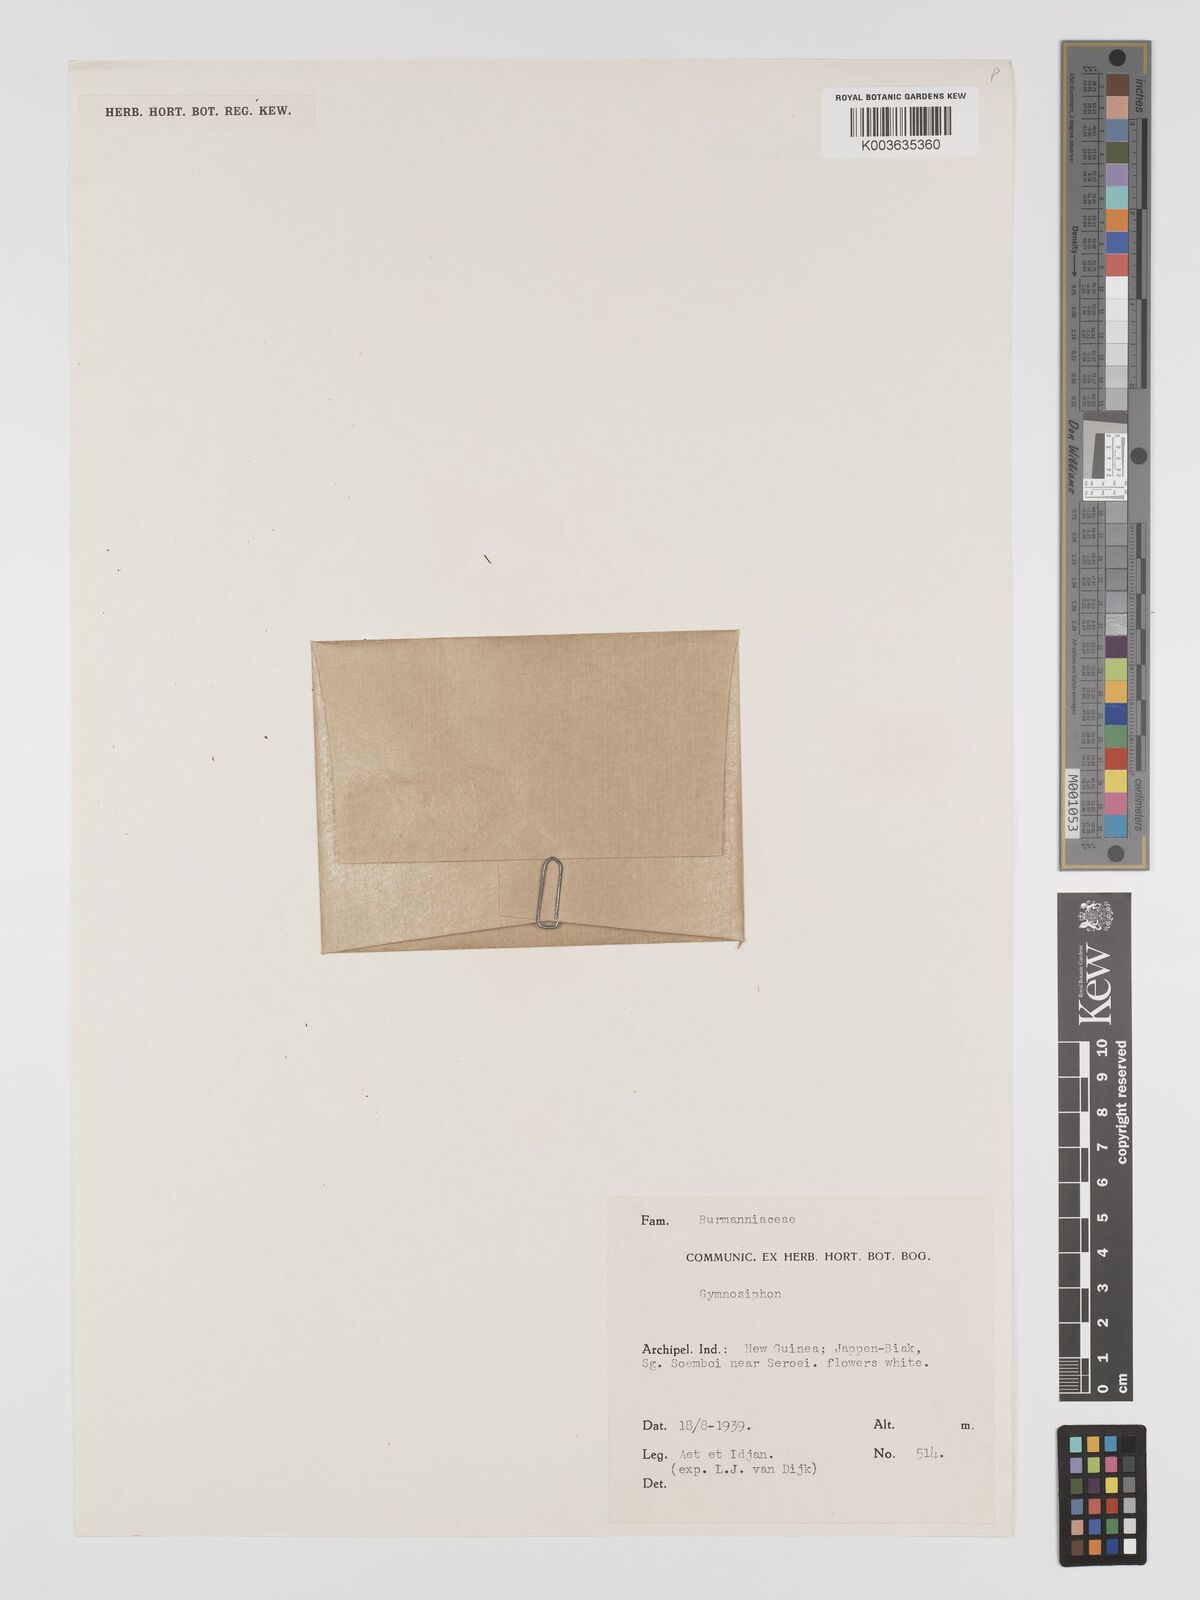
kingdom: Plantae
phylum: Tracheophyta
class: Liliopsida
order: Dioscoreales
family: Burmanniaceae
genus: Gymnosiphon
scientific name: Gymnosiphon
